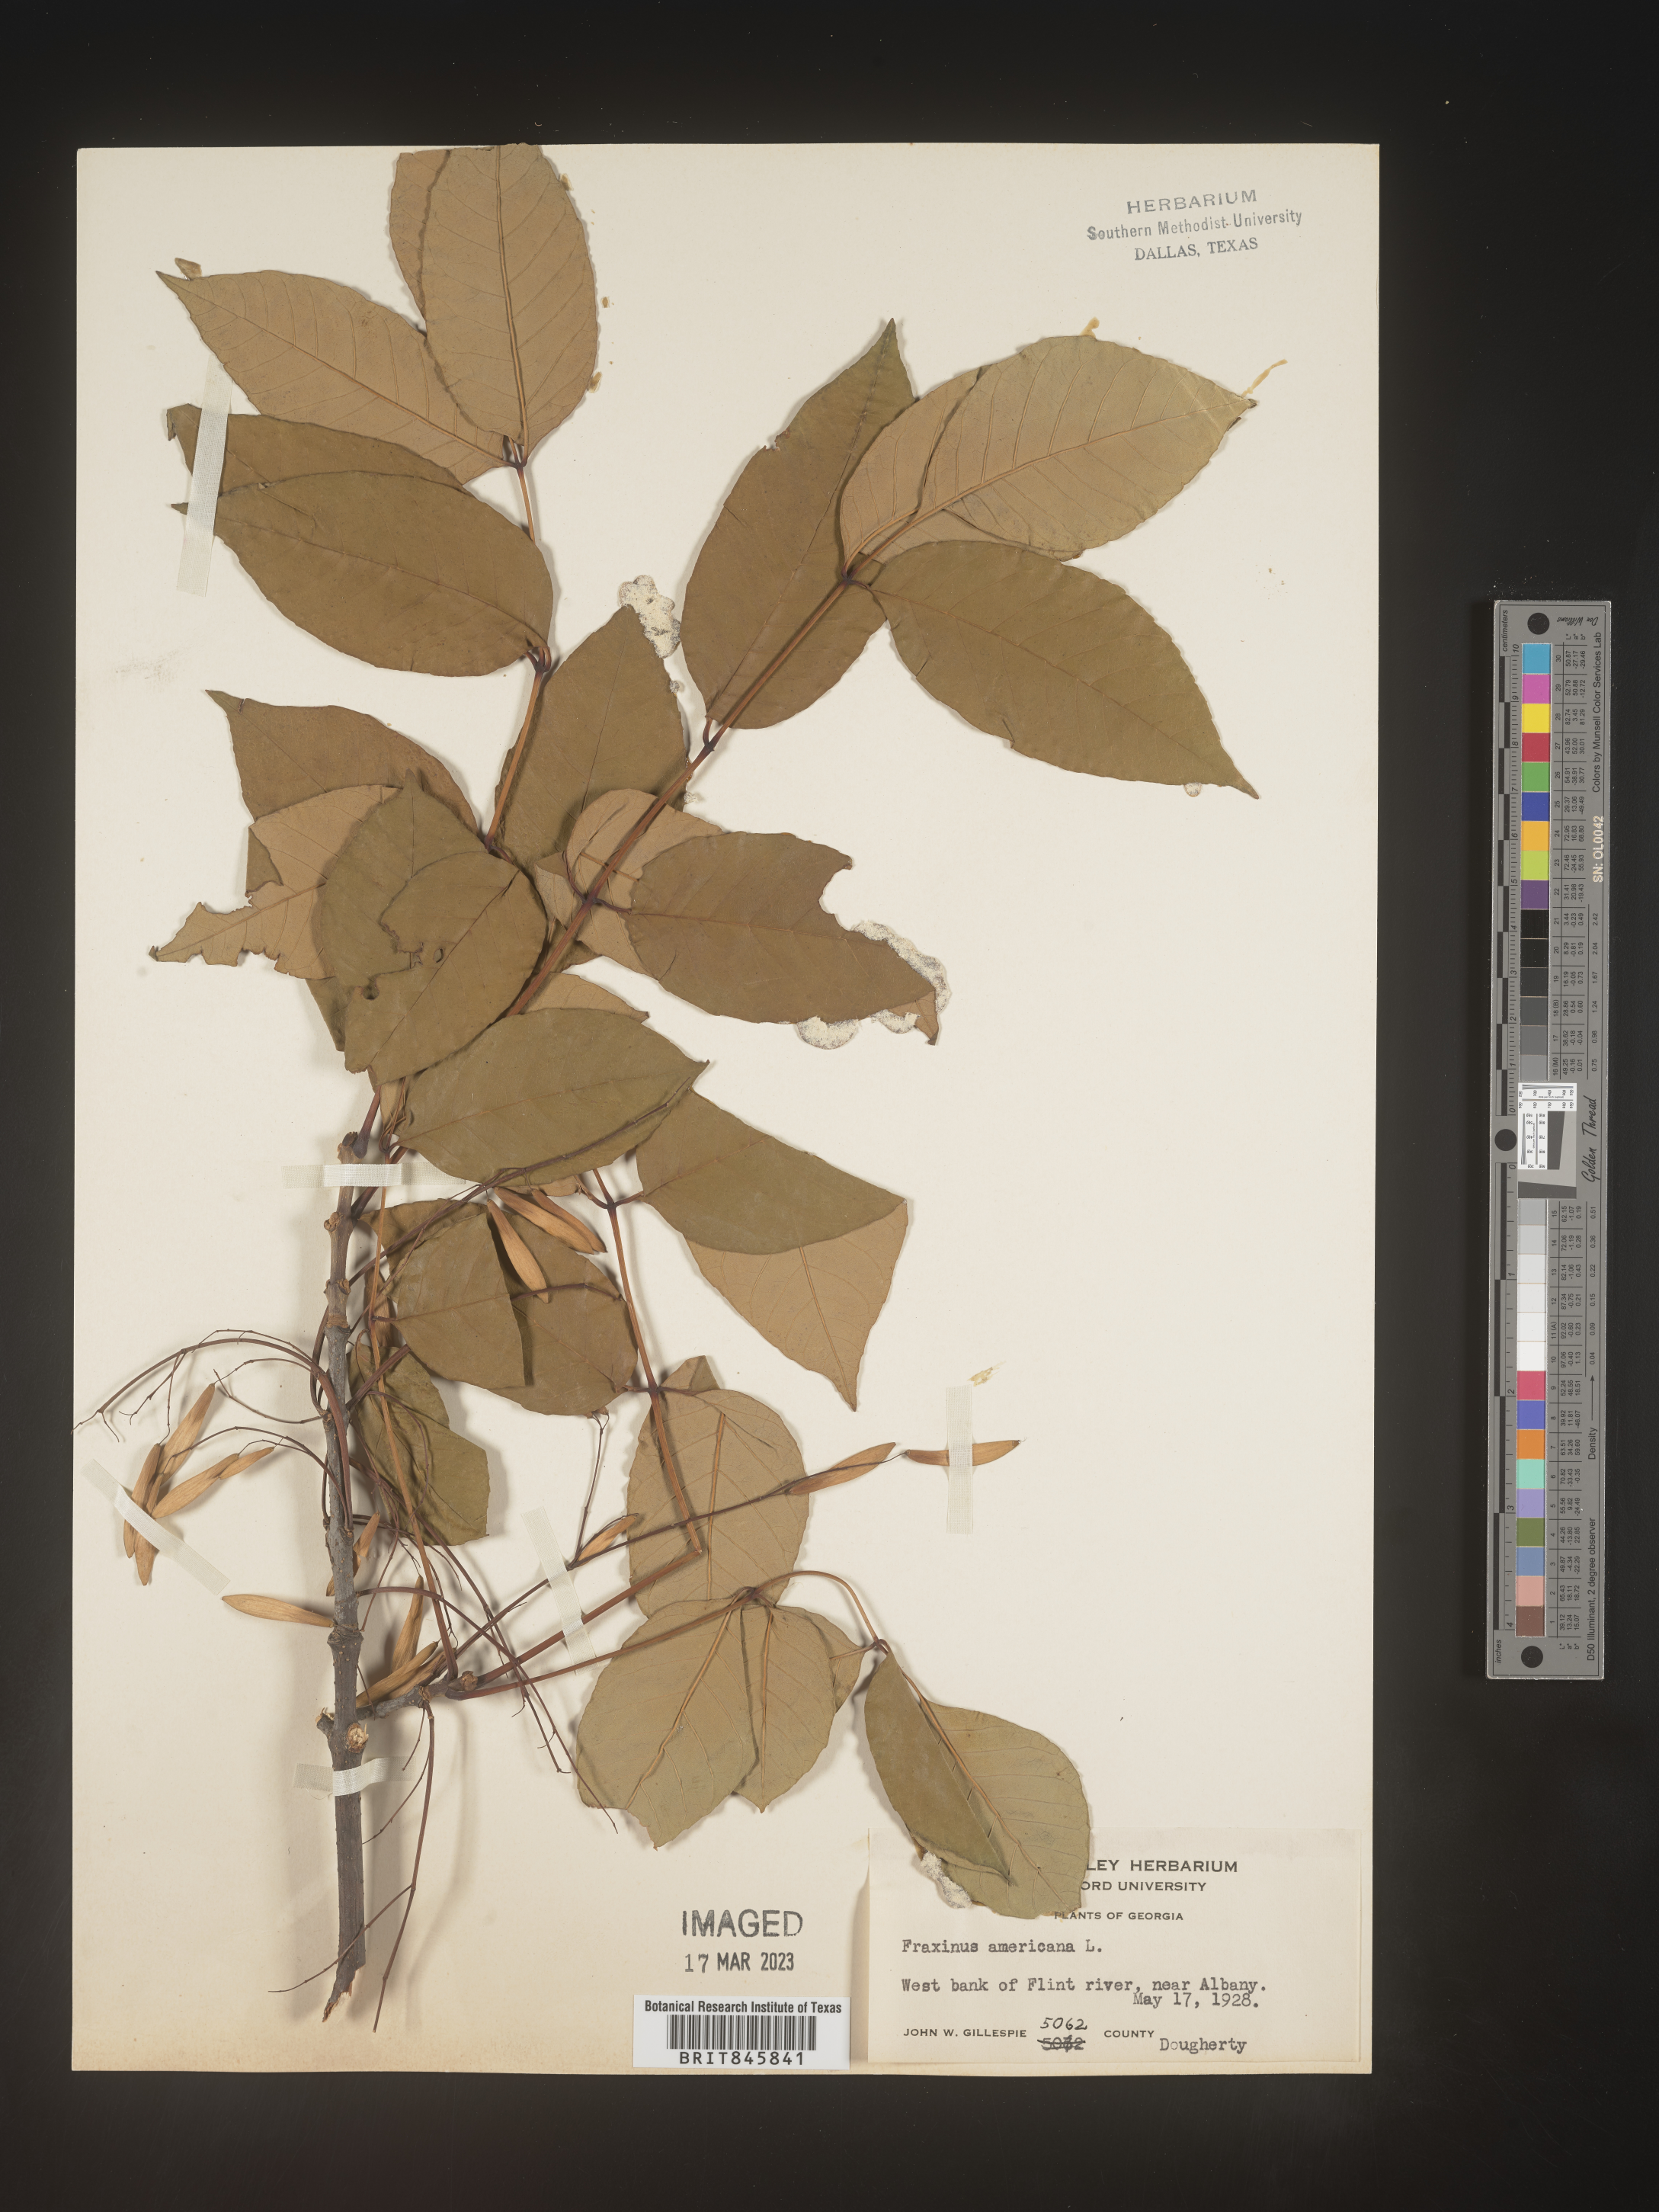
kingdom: Plantae
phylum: Tracheophyta
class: Magnoliopsida
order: Lamiales
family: Oleaceae
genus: Fraxinus
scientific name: Fraxinus americana
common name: White ash
